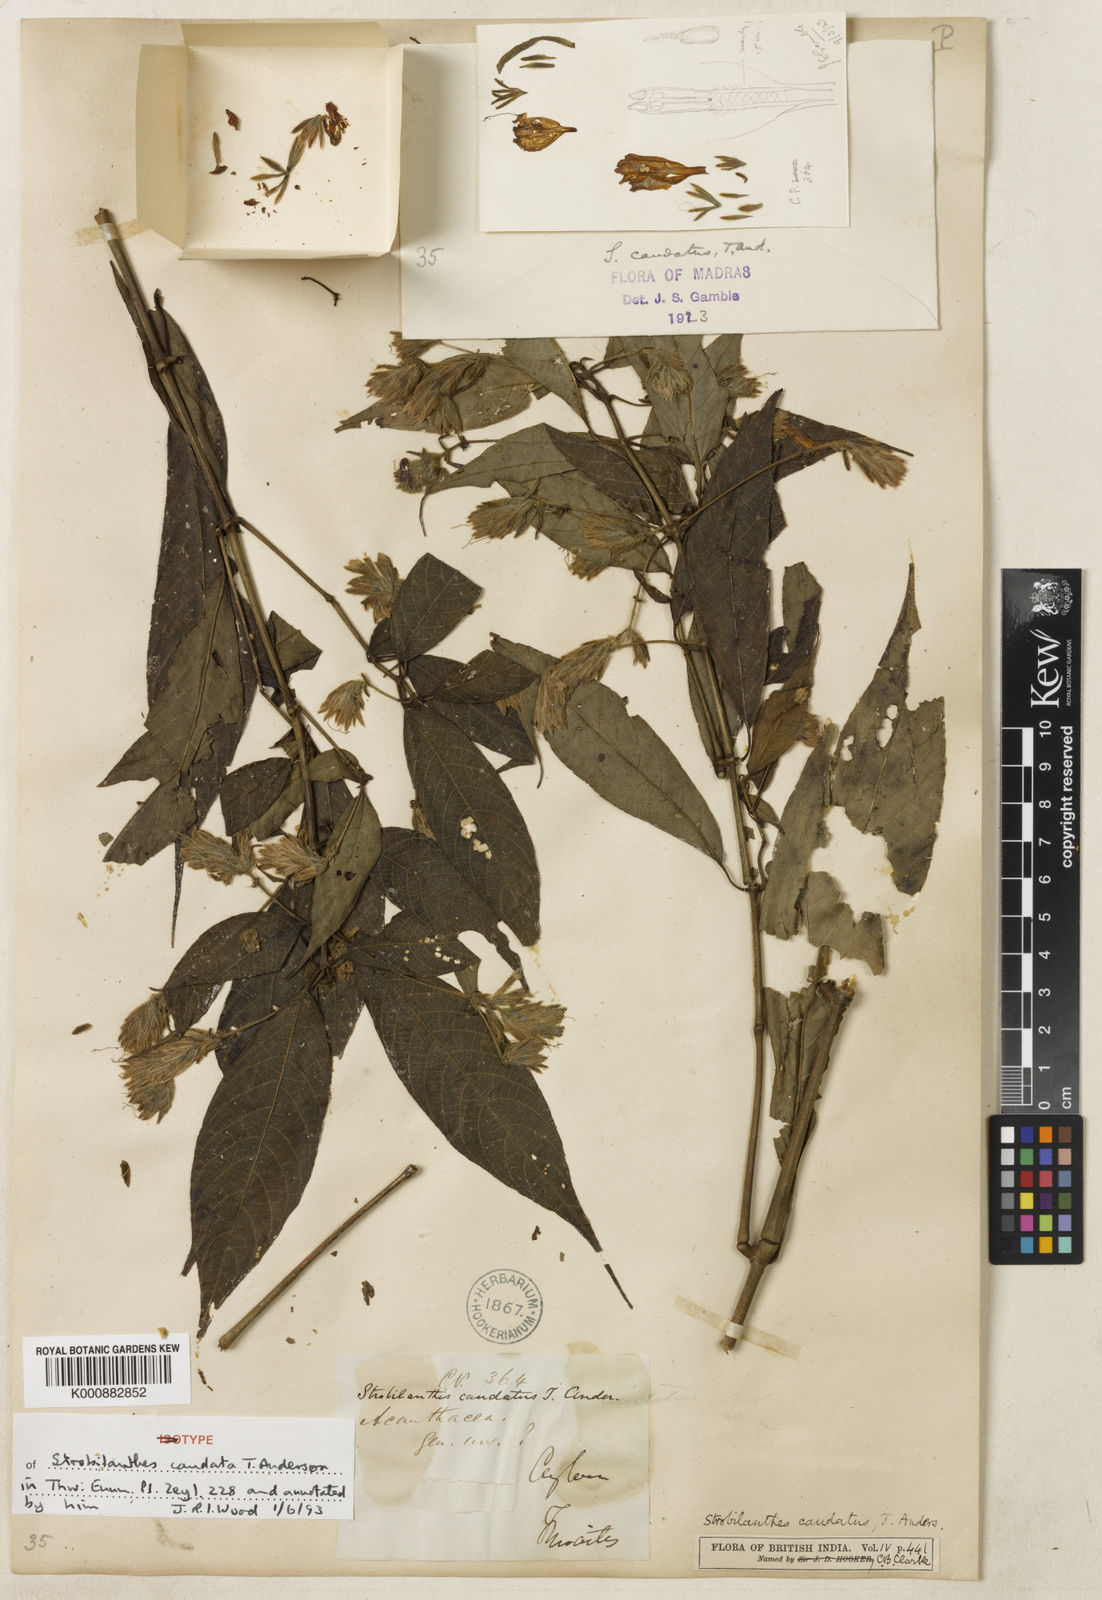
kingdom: Plantae
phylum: Tracheophyta
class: Magnoliopsida
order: Lamiales
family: Acanthaceae
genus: Strobilanthes
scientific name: Strobilanthes caudata
